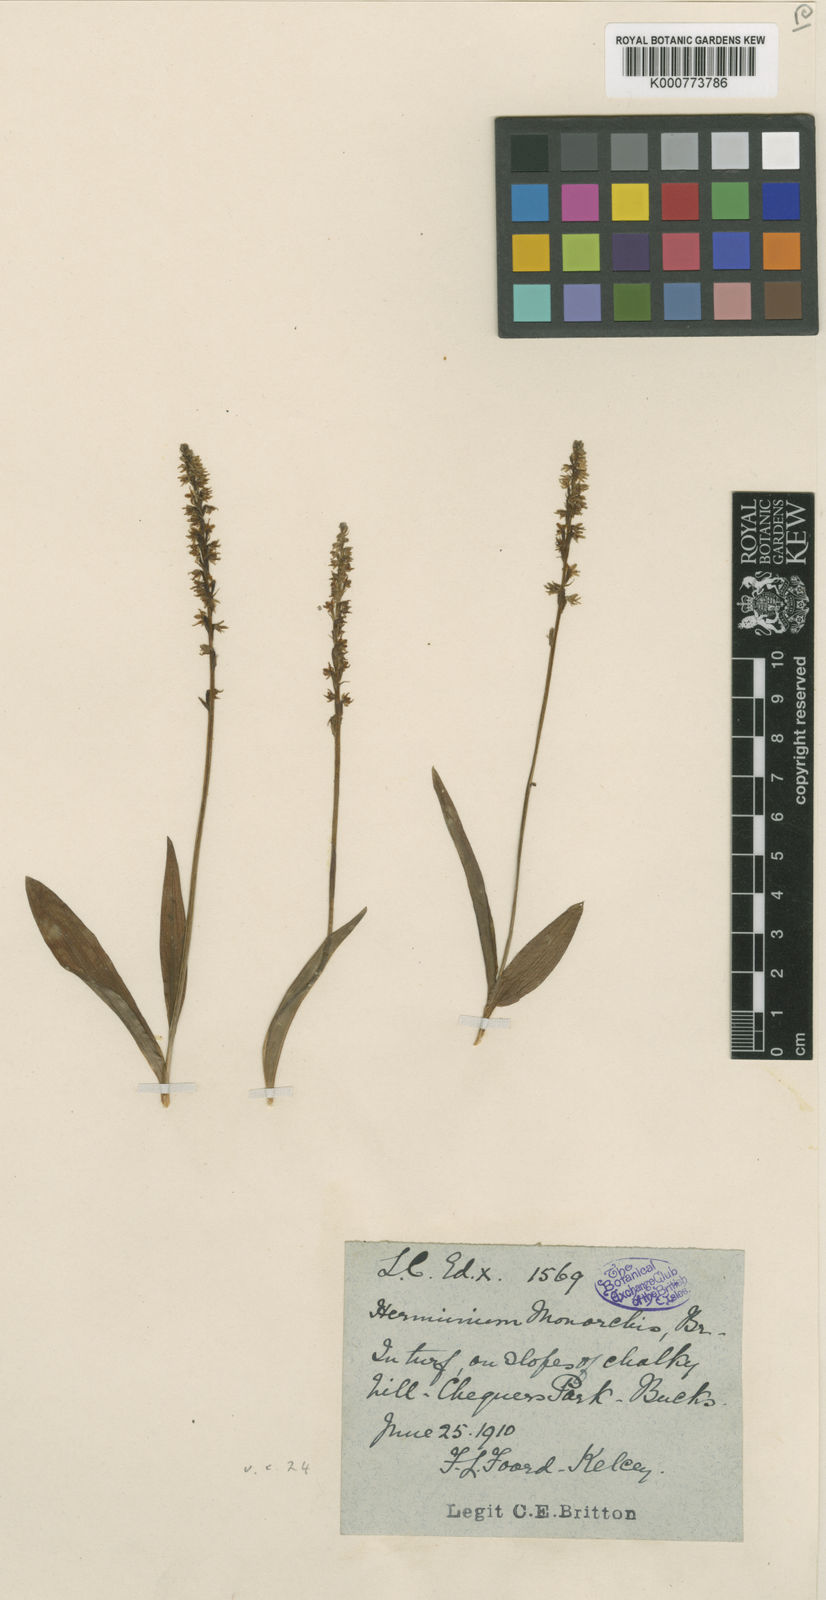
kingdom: Plantae
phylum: Tracheophyta
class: Liliopsida
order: Asparagales
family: Orchidaceae
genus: Herminium
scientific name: Herminium monorchis
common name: Musk orchid
